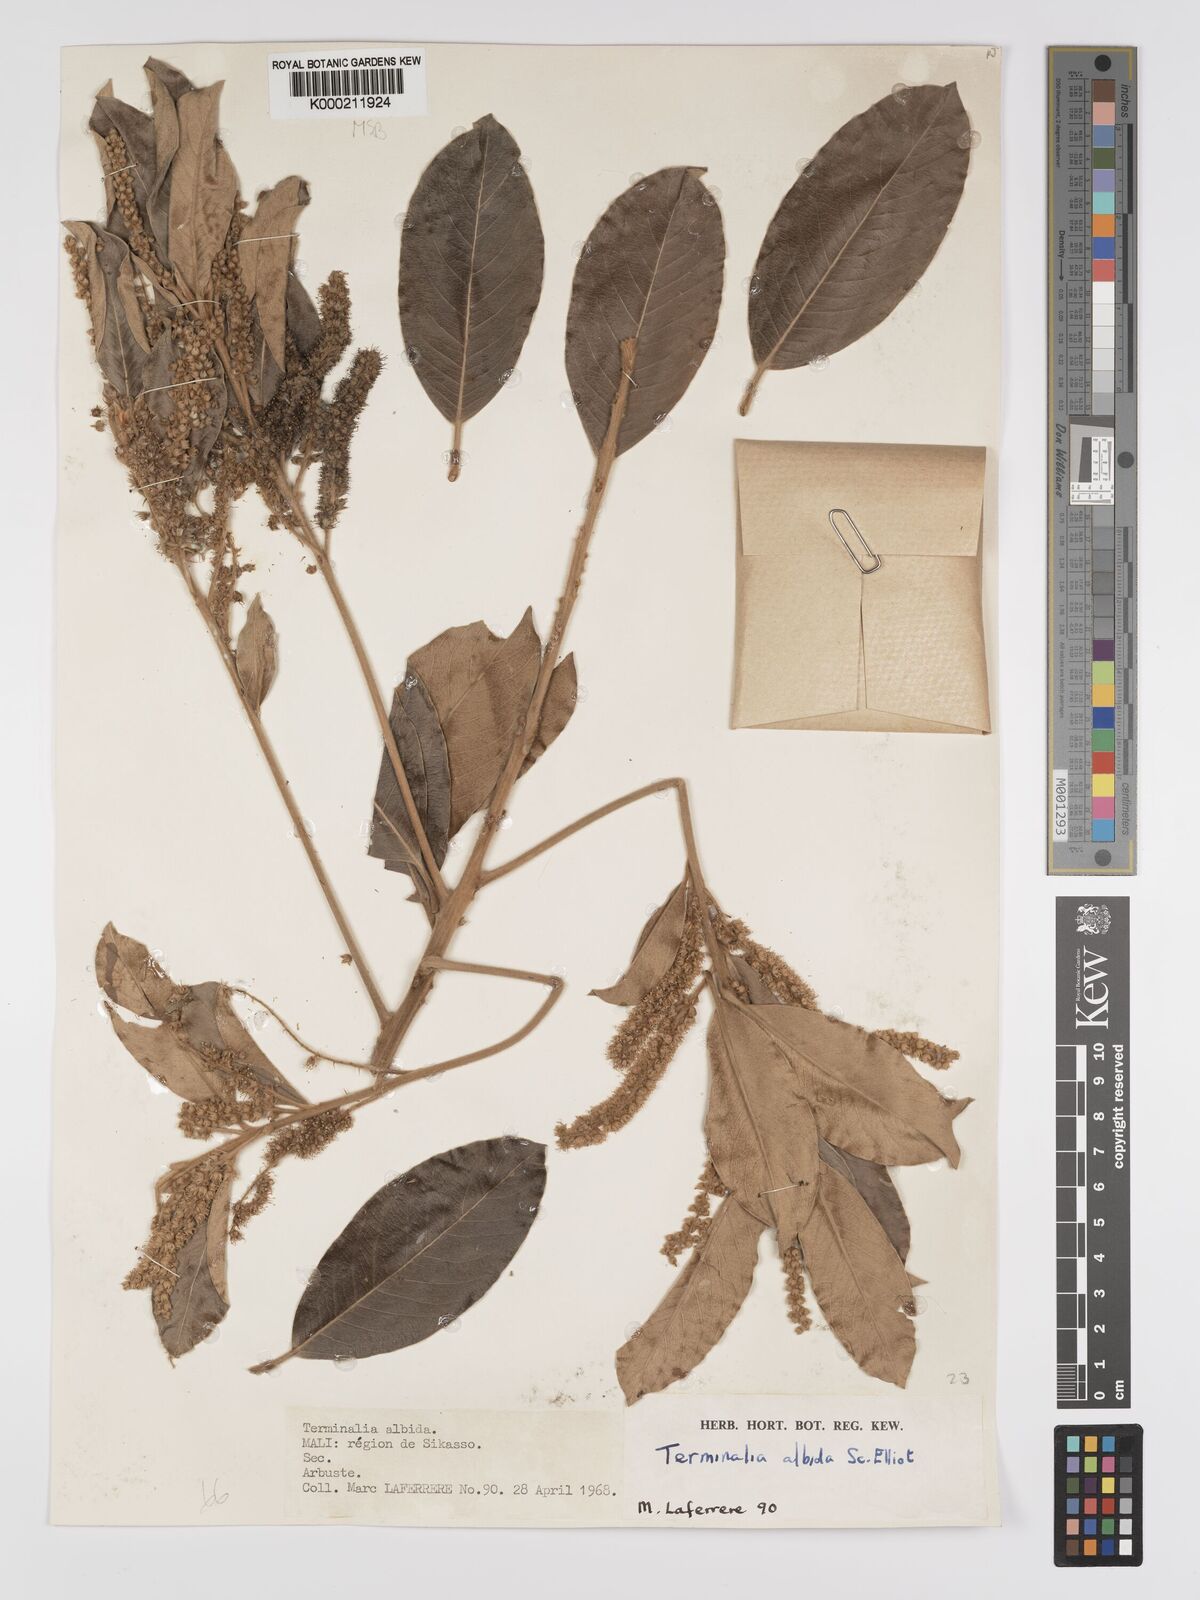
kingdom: Plantae
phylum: Tracheophyta
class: Magnoliopsida
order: Myrtales
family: Combretaceae
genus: Terminalia
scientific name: Terminalia albida
